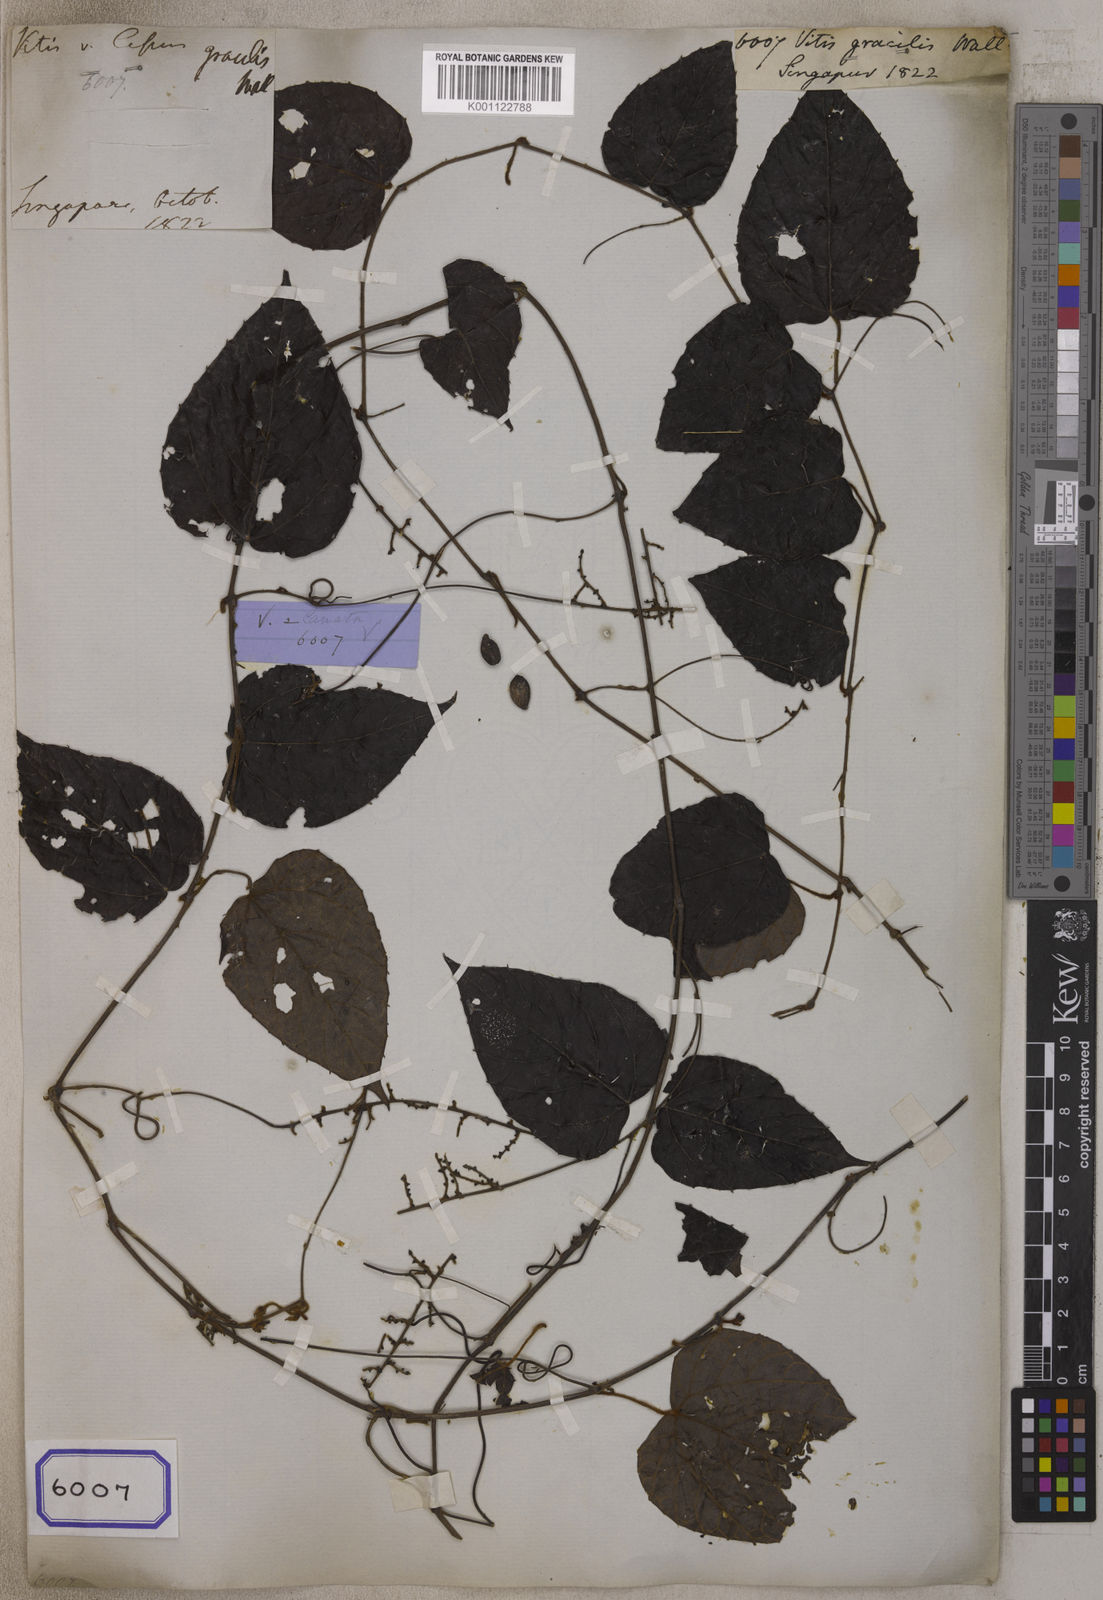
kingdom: Plantae
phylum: Tracheophyta
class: Magnoliopsida
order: Vitales
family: Vitaceae
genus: Ampelocissus
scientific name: Ampelocissus gracilis
